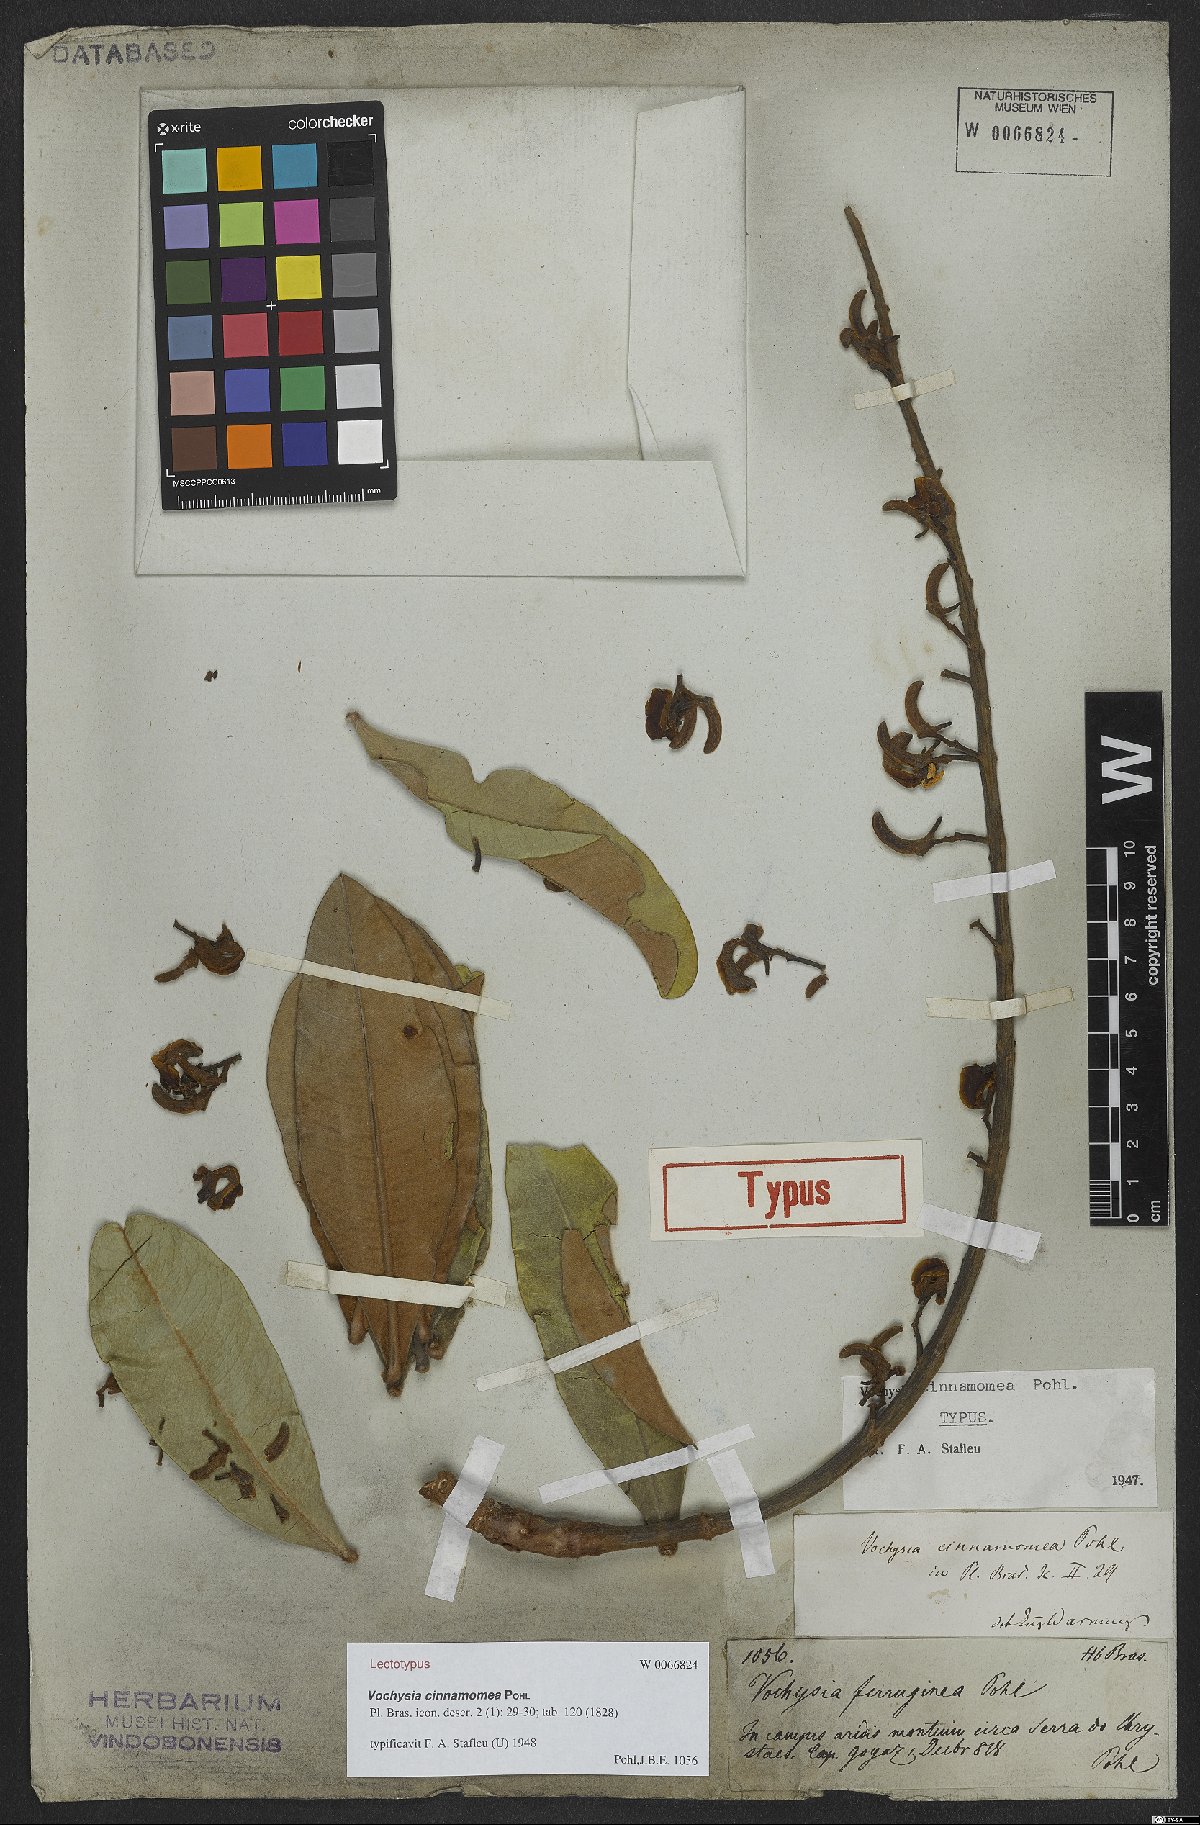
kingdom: Plantae
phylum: Tracheophyta
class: Magnoliopsida
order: Myrtales
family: Vochysiaceae
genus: Vochysia
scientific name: Vochysia cinnamomea
